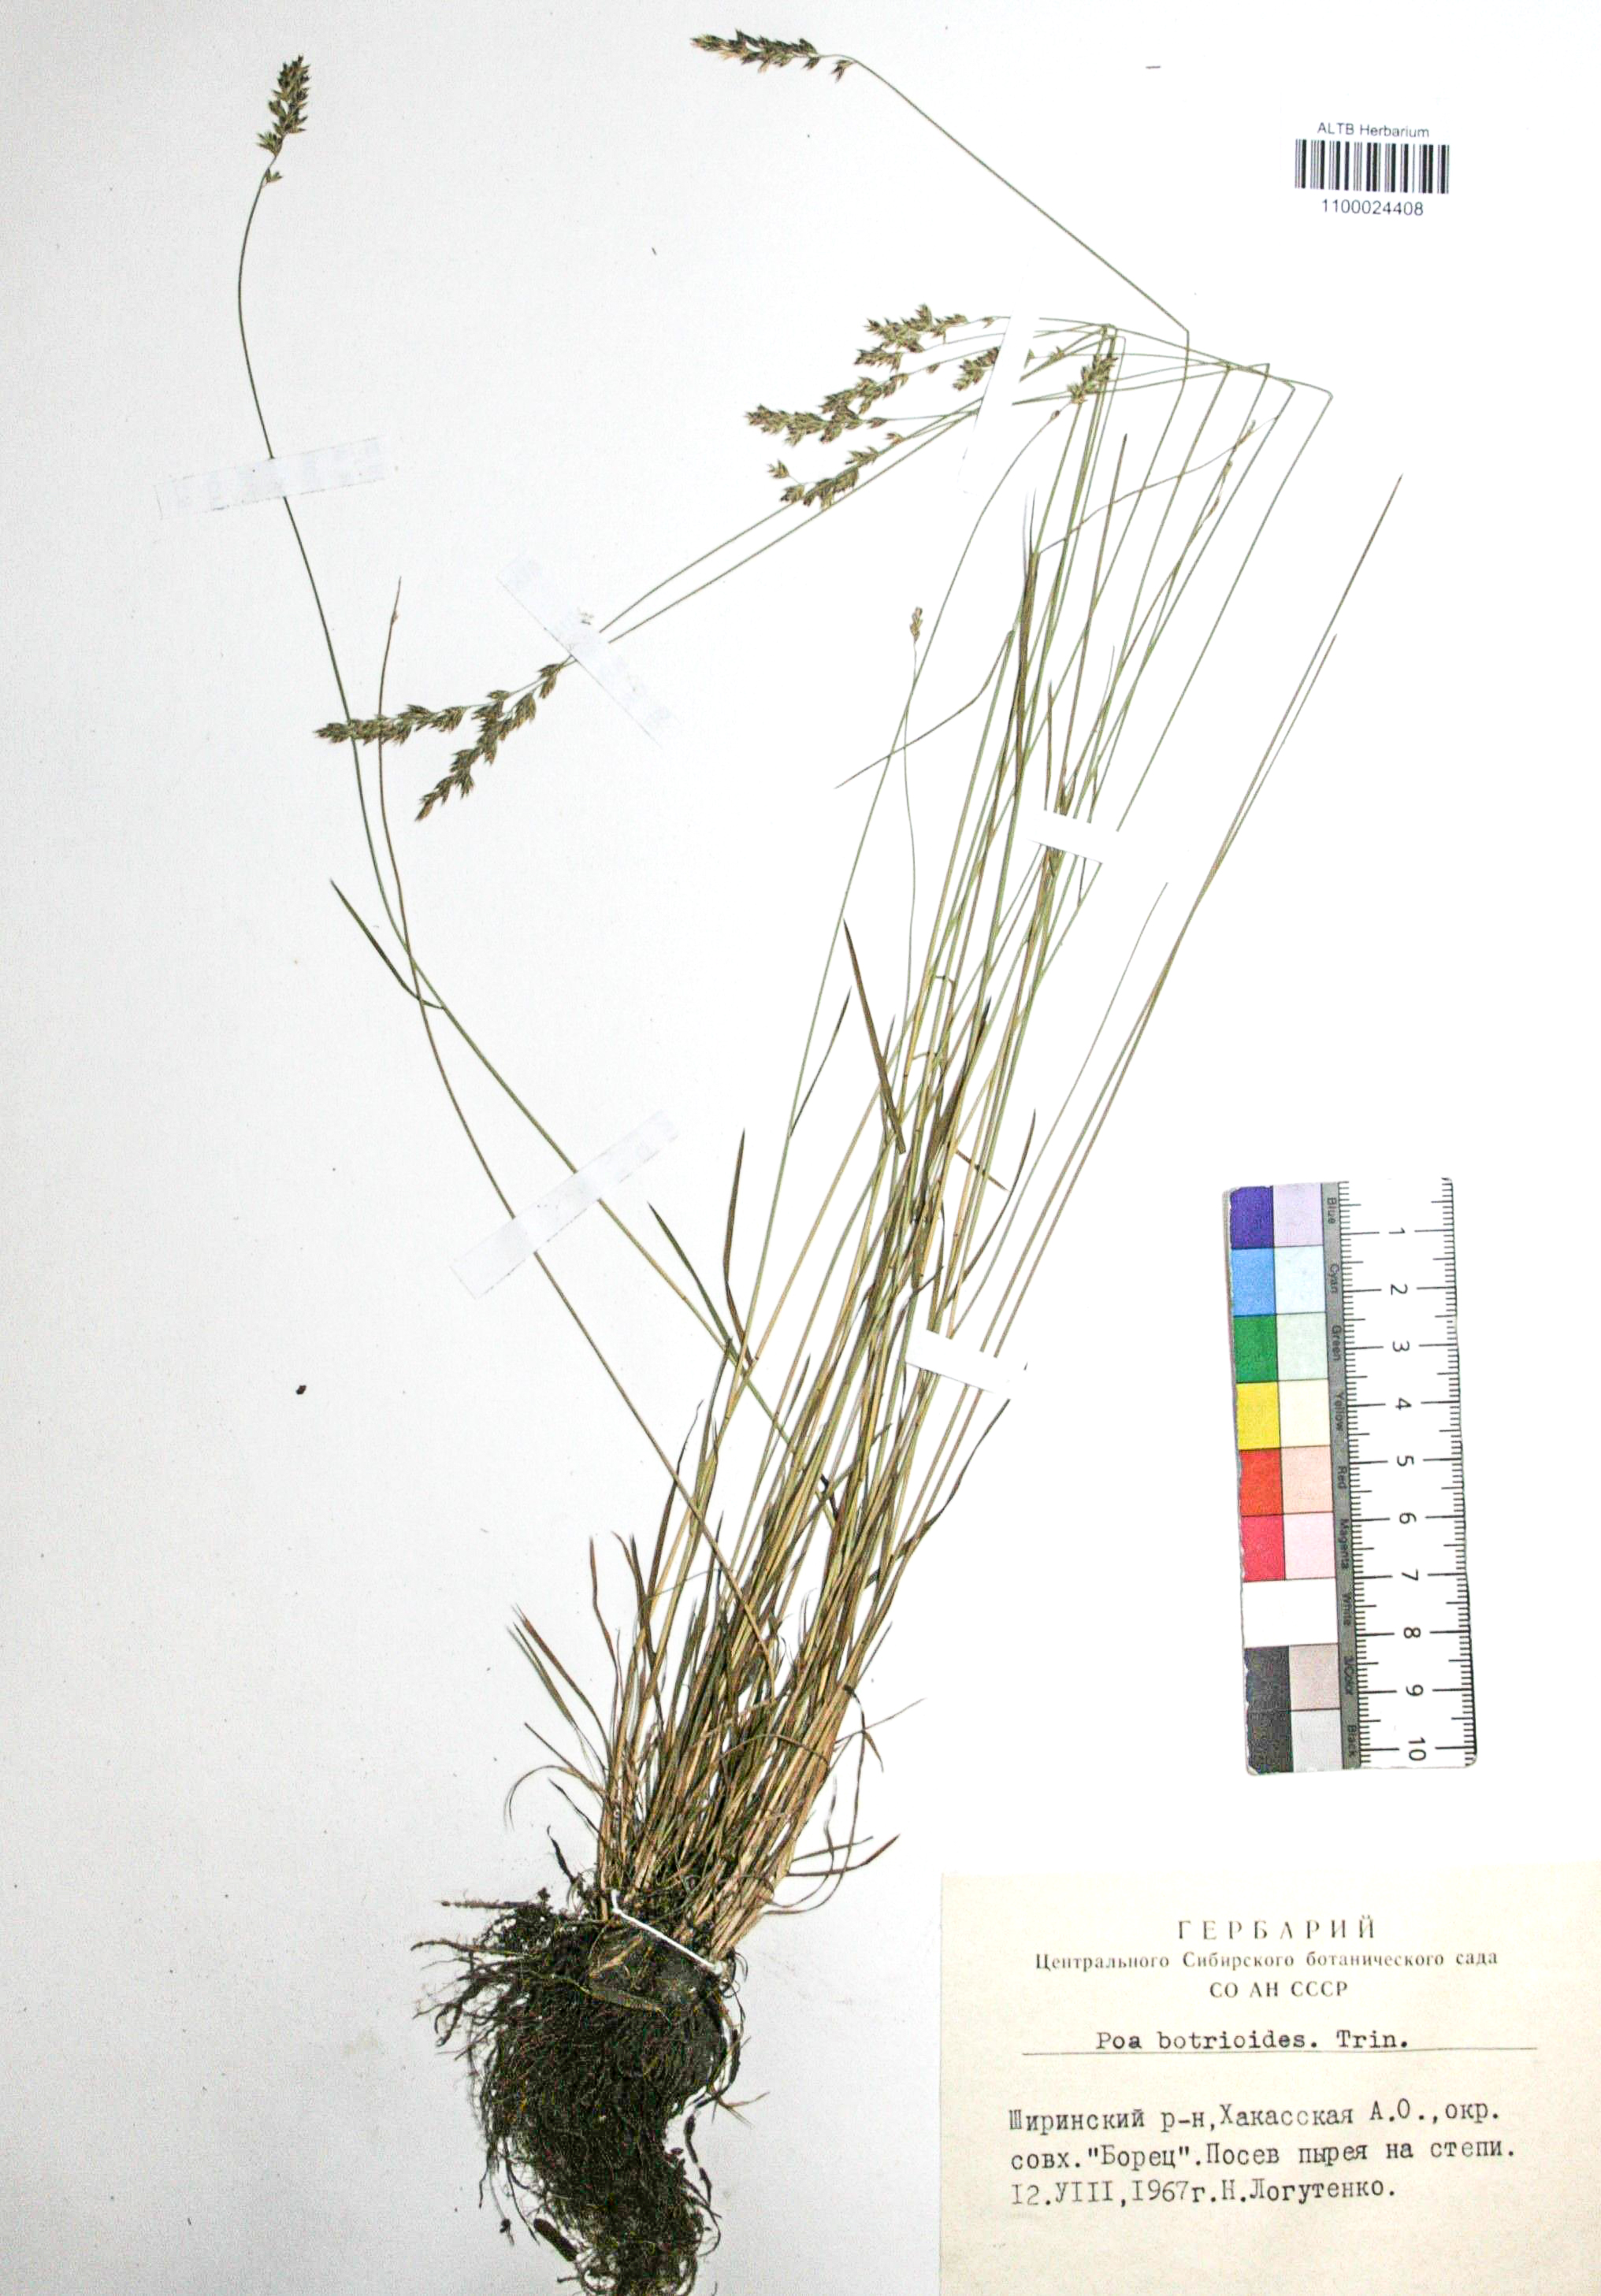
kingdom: Plantae
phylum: Tracheophyta
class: Liliopsida
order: Poales
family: Poaceae
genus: Poa
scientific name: Poa attenuata
